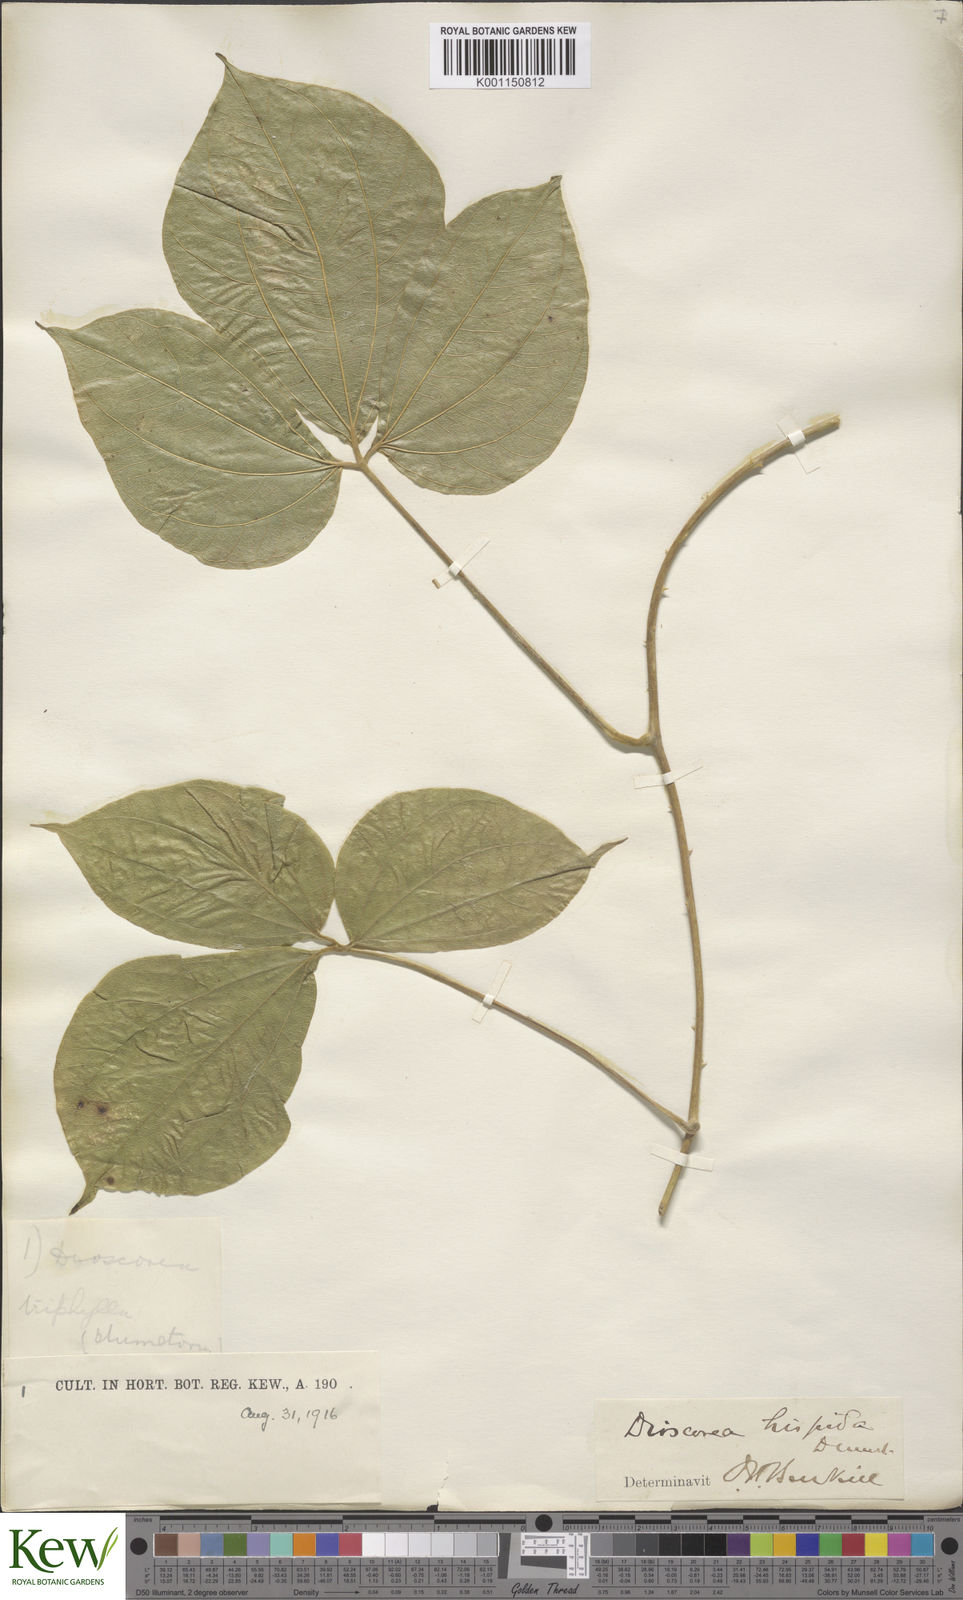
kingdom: Plantae
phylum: Tracheophyta
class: Liliopsida
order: Dioscoreales
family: Dioscoreaceae
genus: Dioscorea
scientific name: Dioscorea hispida
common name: Asiatic bitter yam
